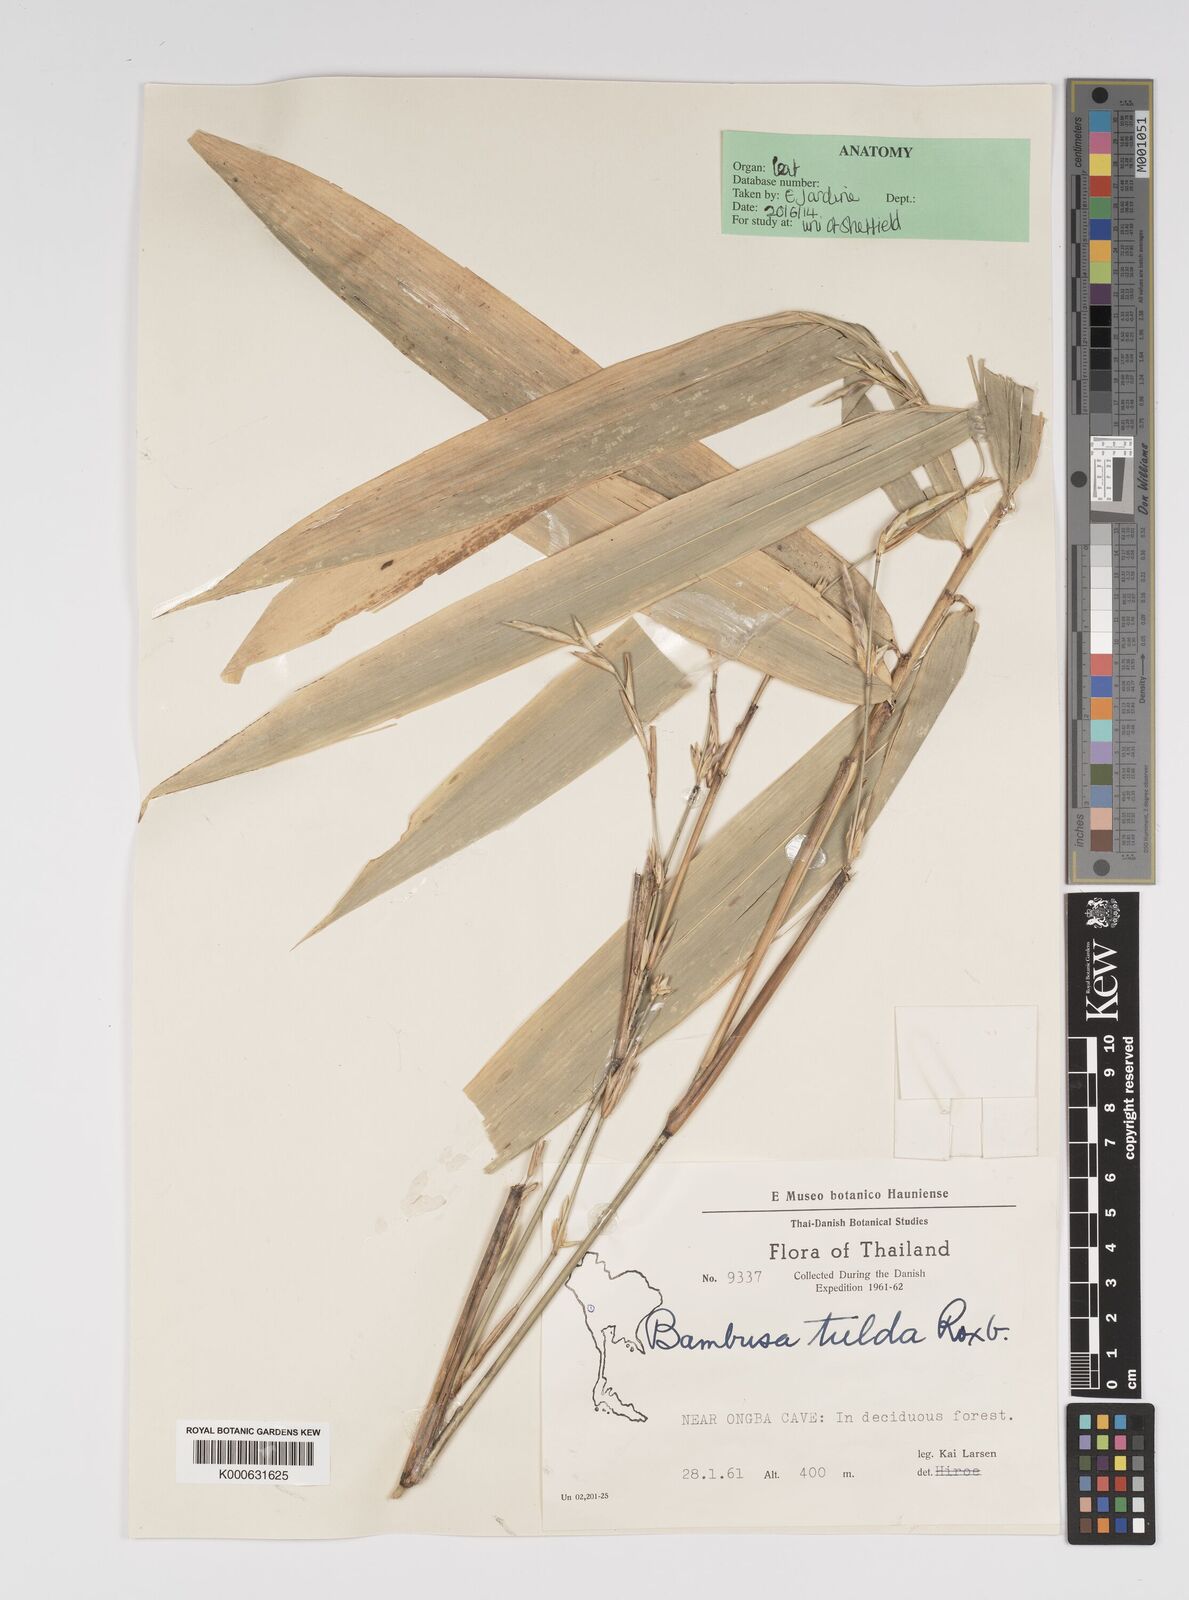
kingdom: Plantae
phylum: Tracheophyta
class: Liliopsida
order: Poales
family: Poaceae
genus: Bambusa
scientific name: Bambusa tulda
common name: Bengal bamboo
